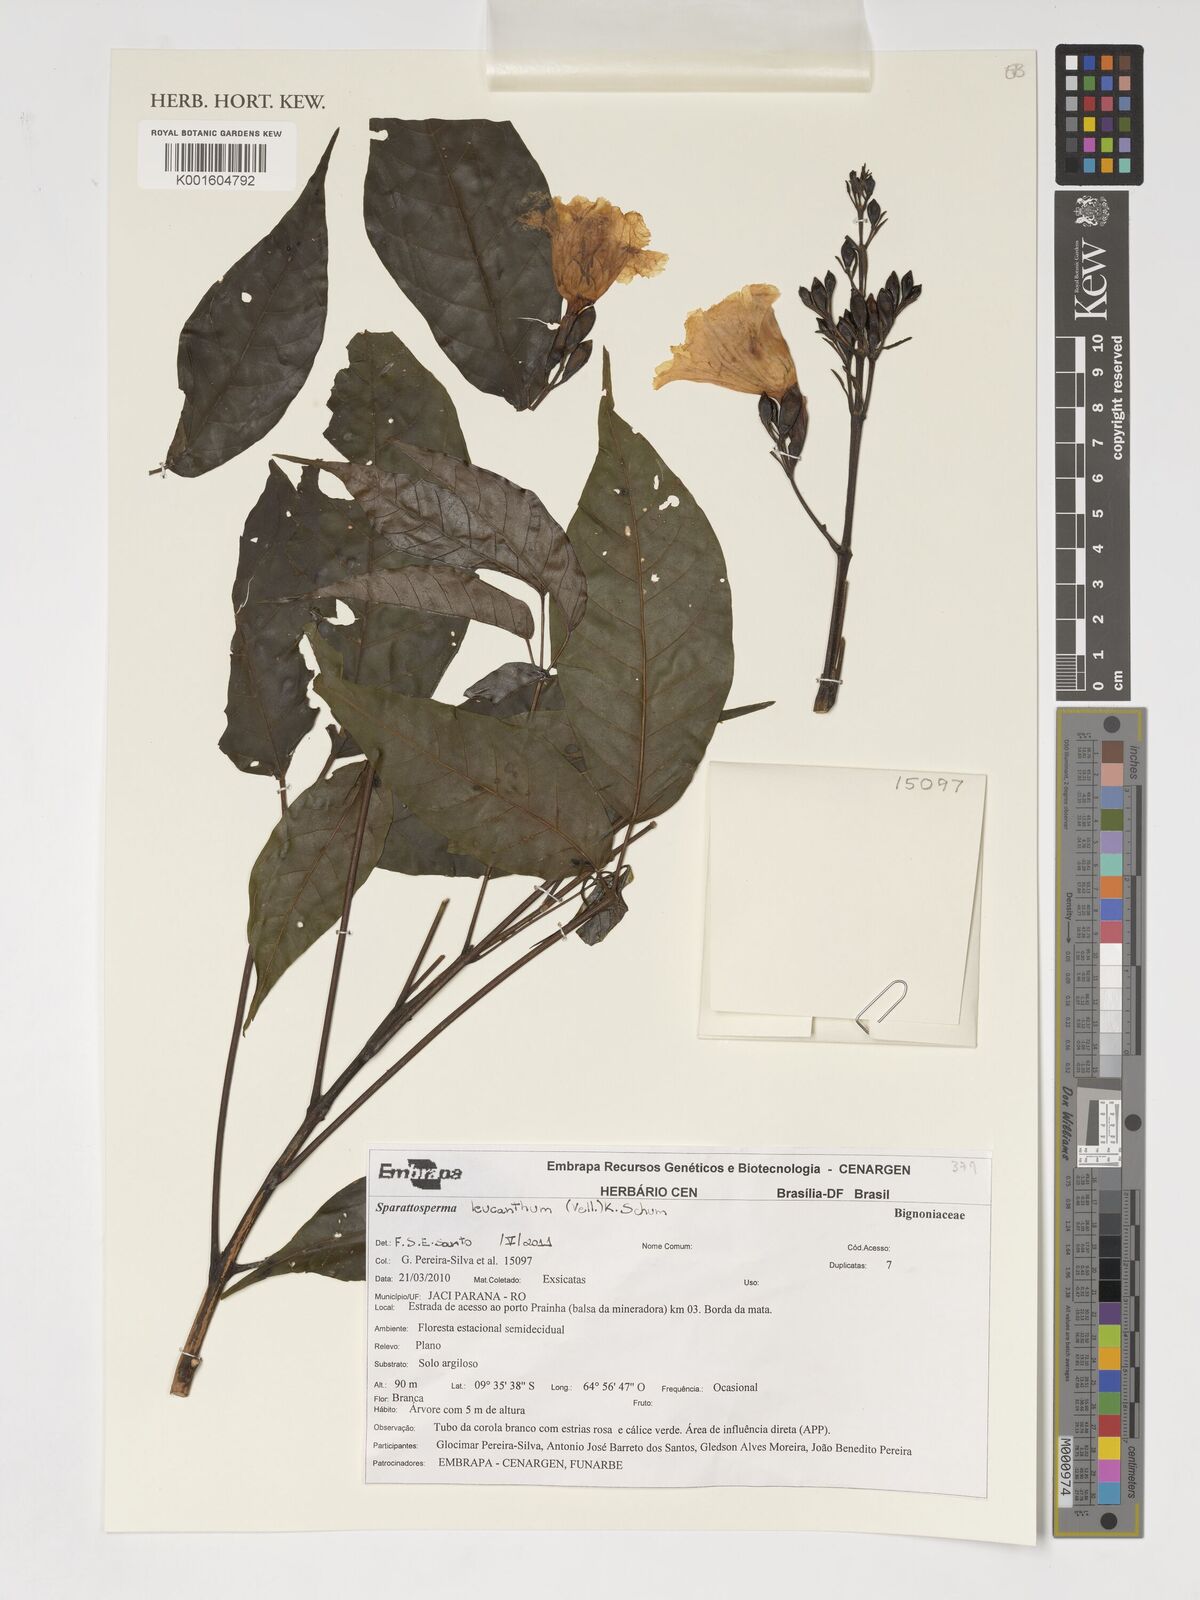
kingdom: Plantae
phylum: Tracheophyta
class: Magnoliopsida
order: Lamiales
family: Bignoniaceae
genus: Sparattosperma
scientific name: Sparattosperma leucanthum
